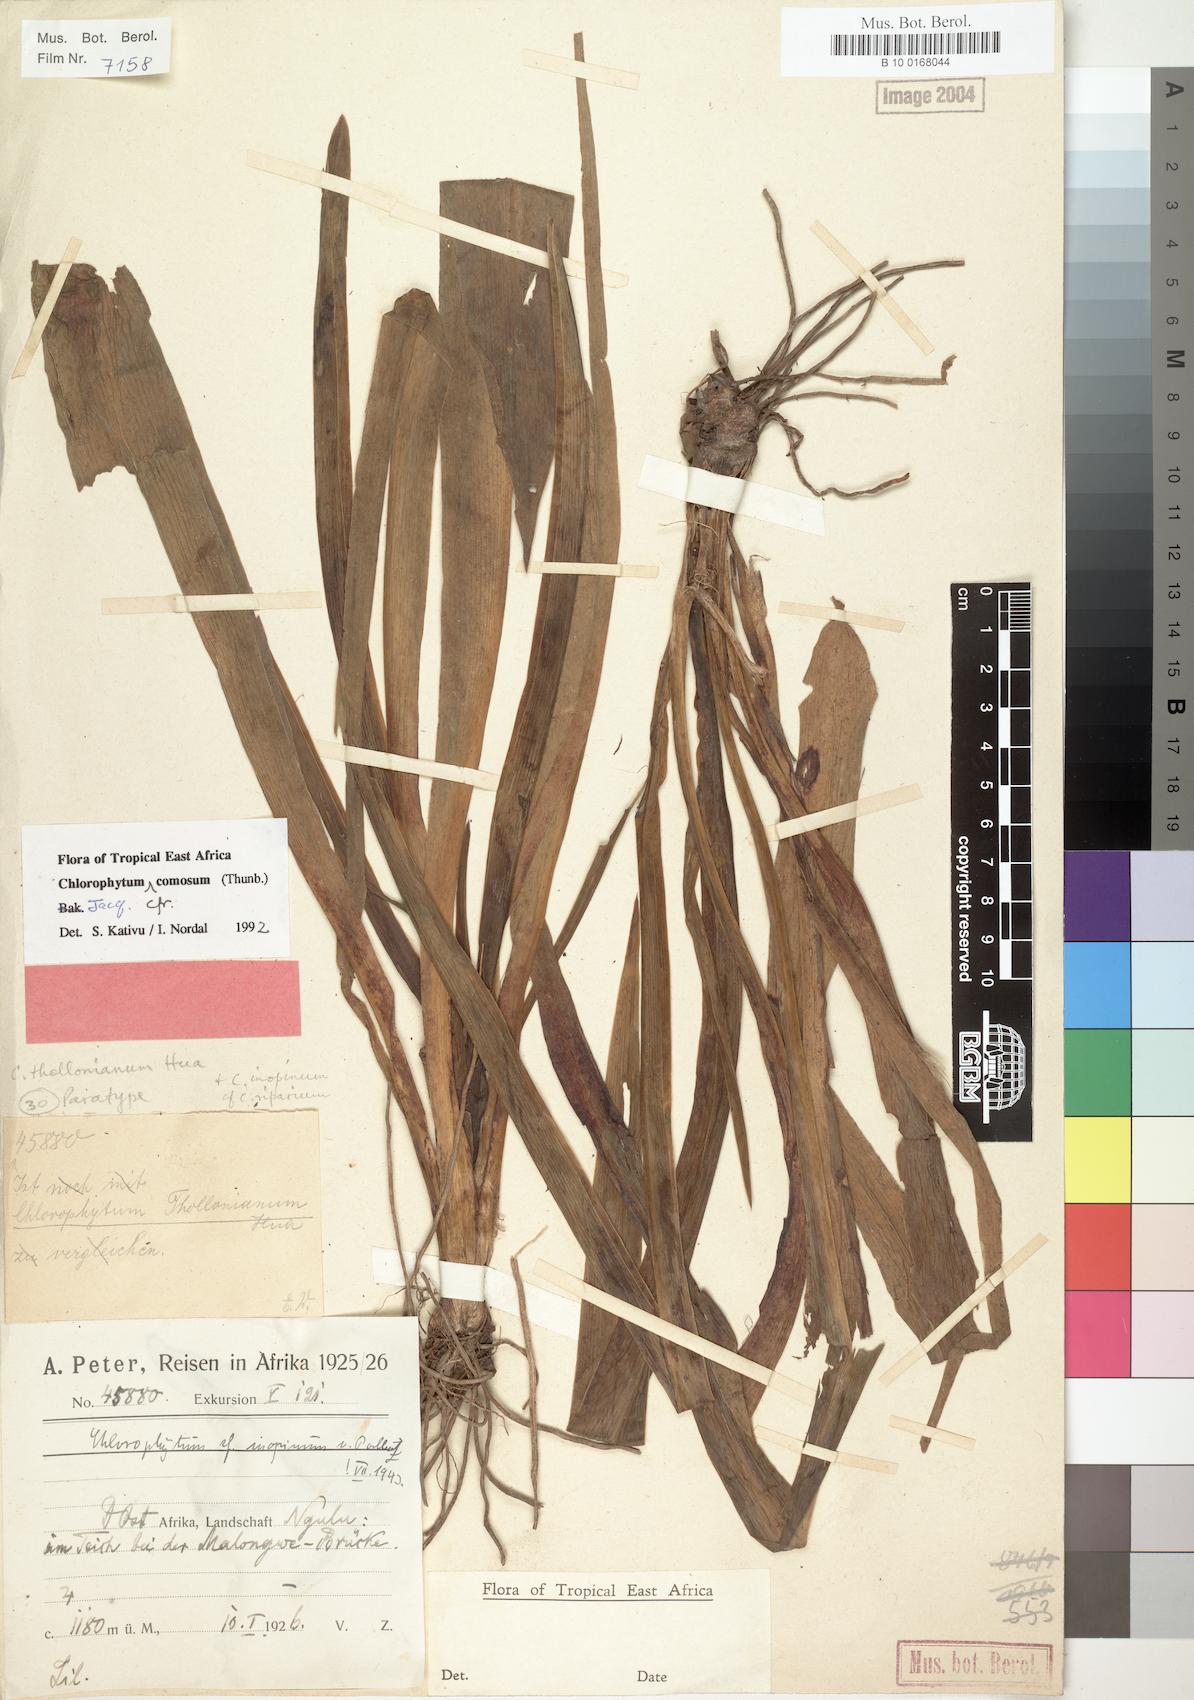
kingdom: Plantae
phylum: Tracheophyta
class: Liliopsida
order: Asparagales
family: Asparagaceae
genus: Chlorophytum
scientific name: Chlorophytum comosum
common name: Spider plant
